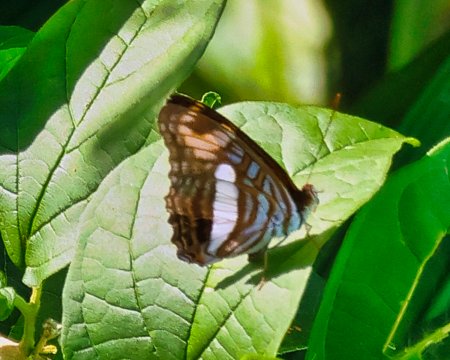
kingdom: Animalia
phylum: Arthropoda
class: Insecta
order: Lepidoptera
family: Nymphalidae
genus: Limenitis
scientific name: Limenitis malea
